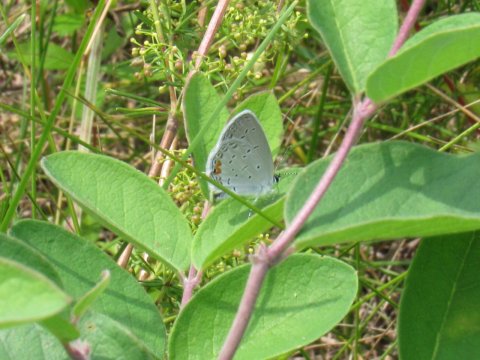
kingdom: Animalia
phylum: Arthropoda
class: Insecta
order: Lepidoptera
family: Lycaenidae
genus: Elkalyce
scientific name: Elkalyce comyntas
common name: Eastern Tailed-Blue
